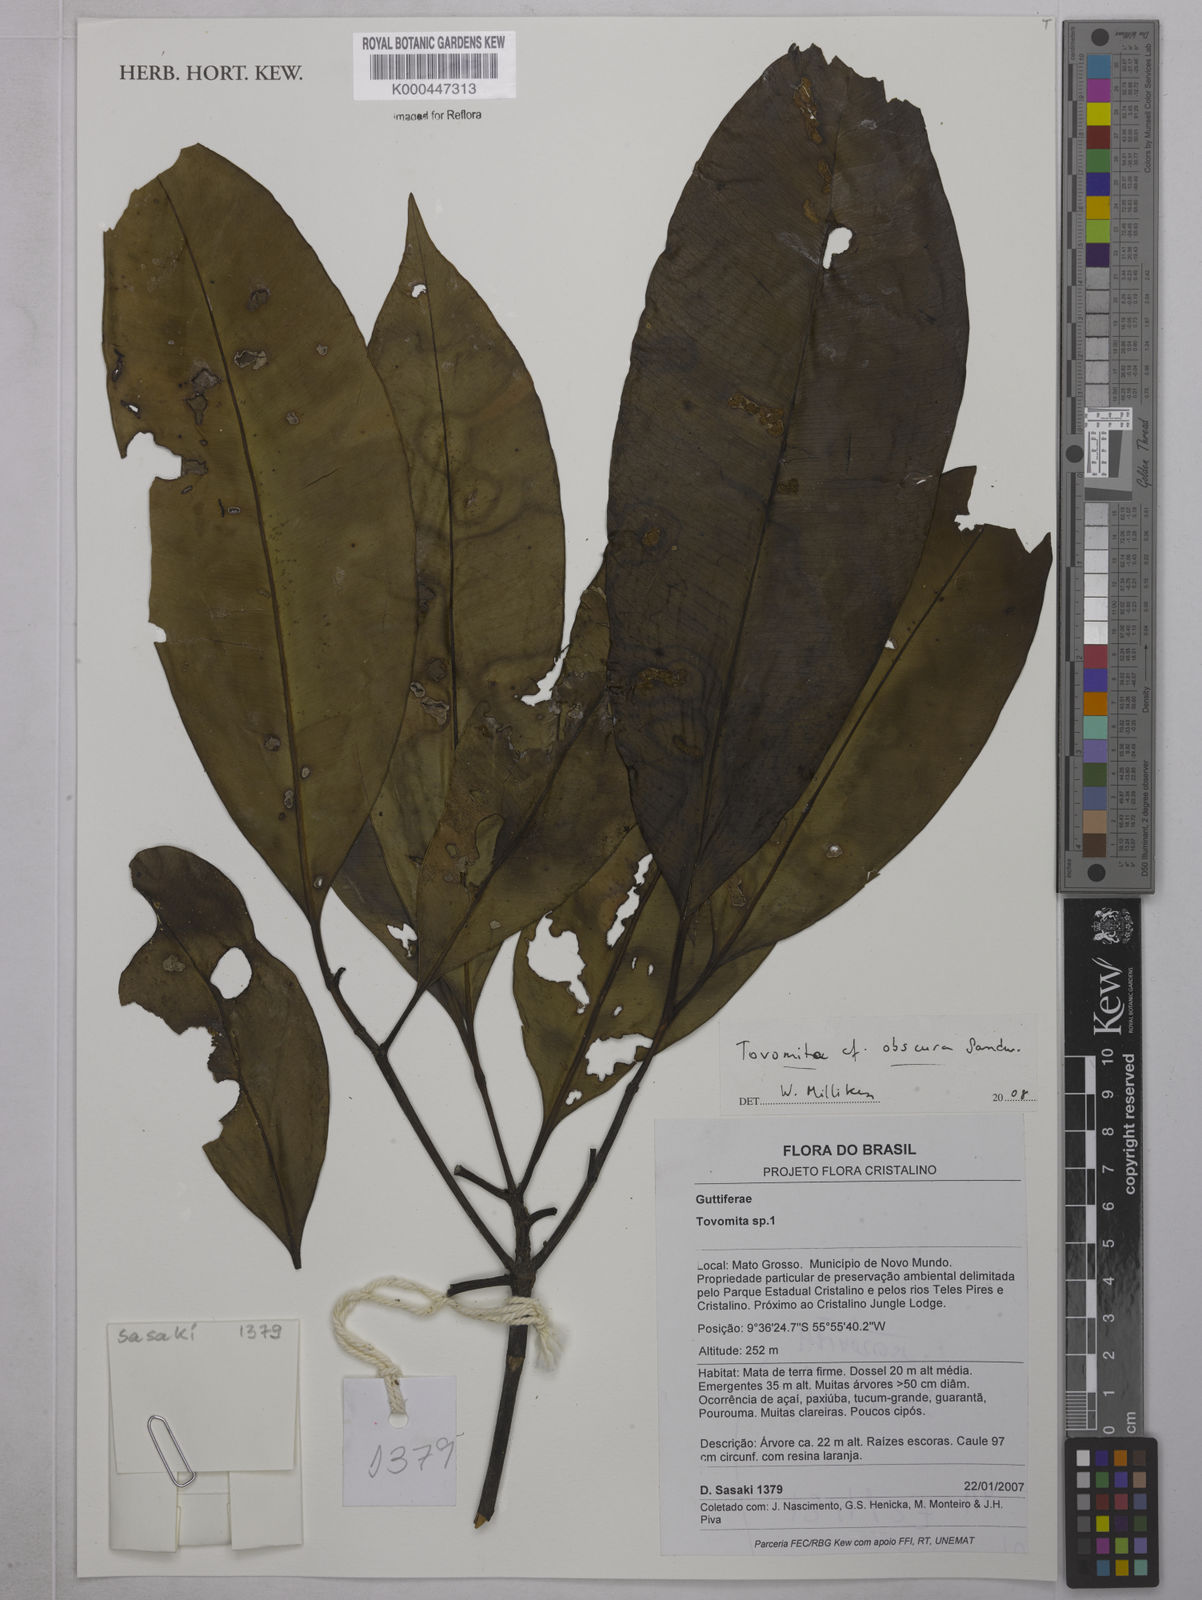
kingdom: Plantae
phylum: Tracheophyta
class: Magnoliopsida
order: Malpighiales
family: Clusiaceae
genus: Tovomita
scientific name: Tovomita obscura
